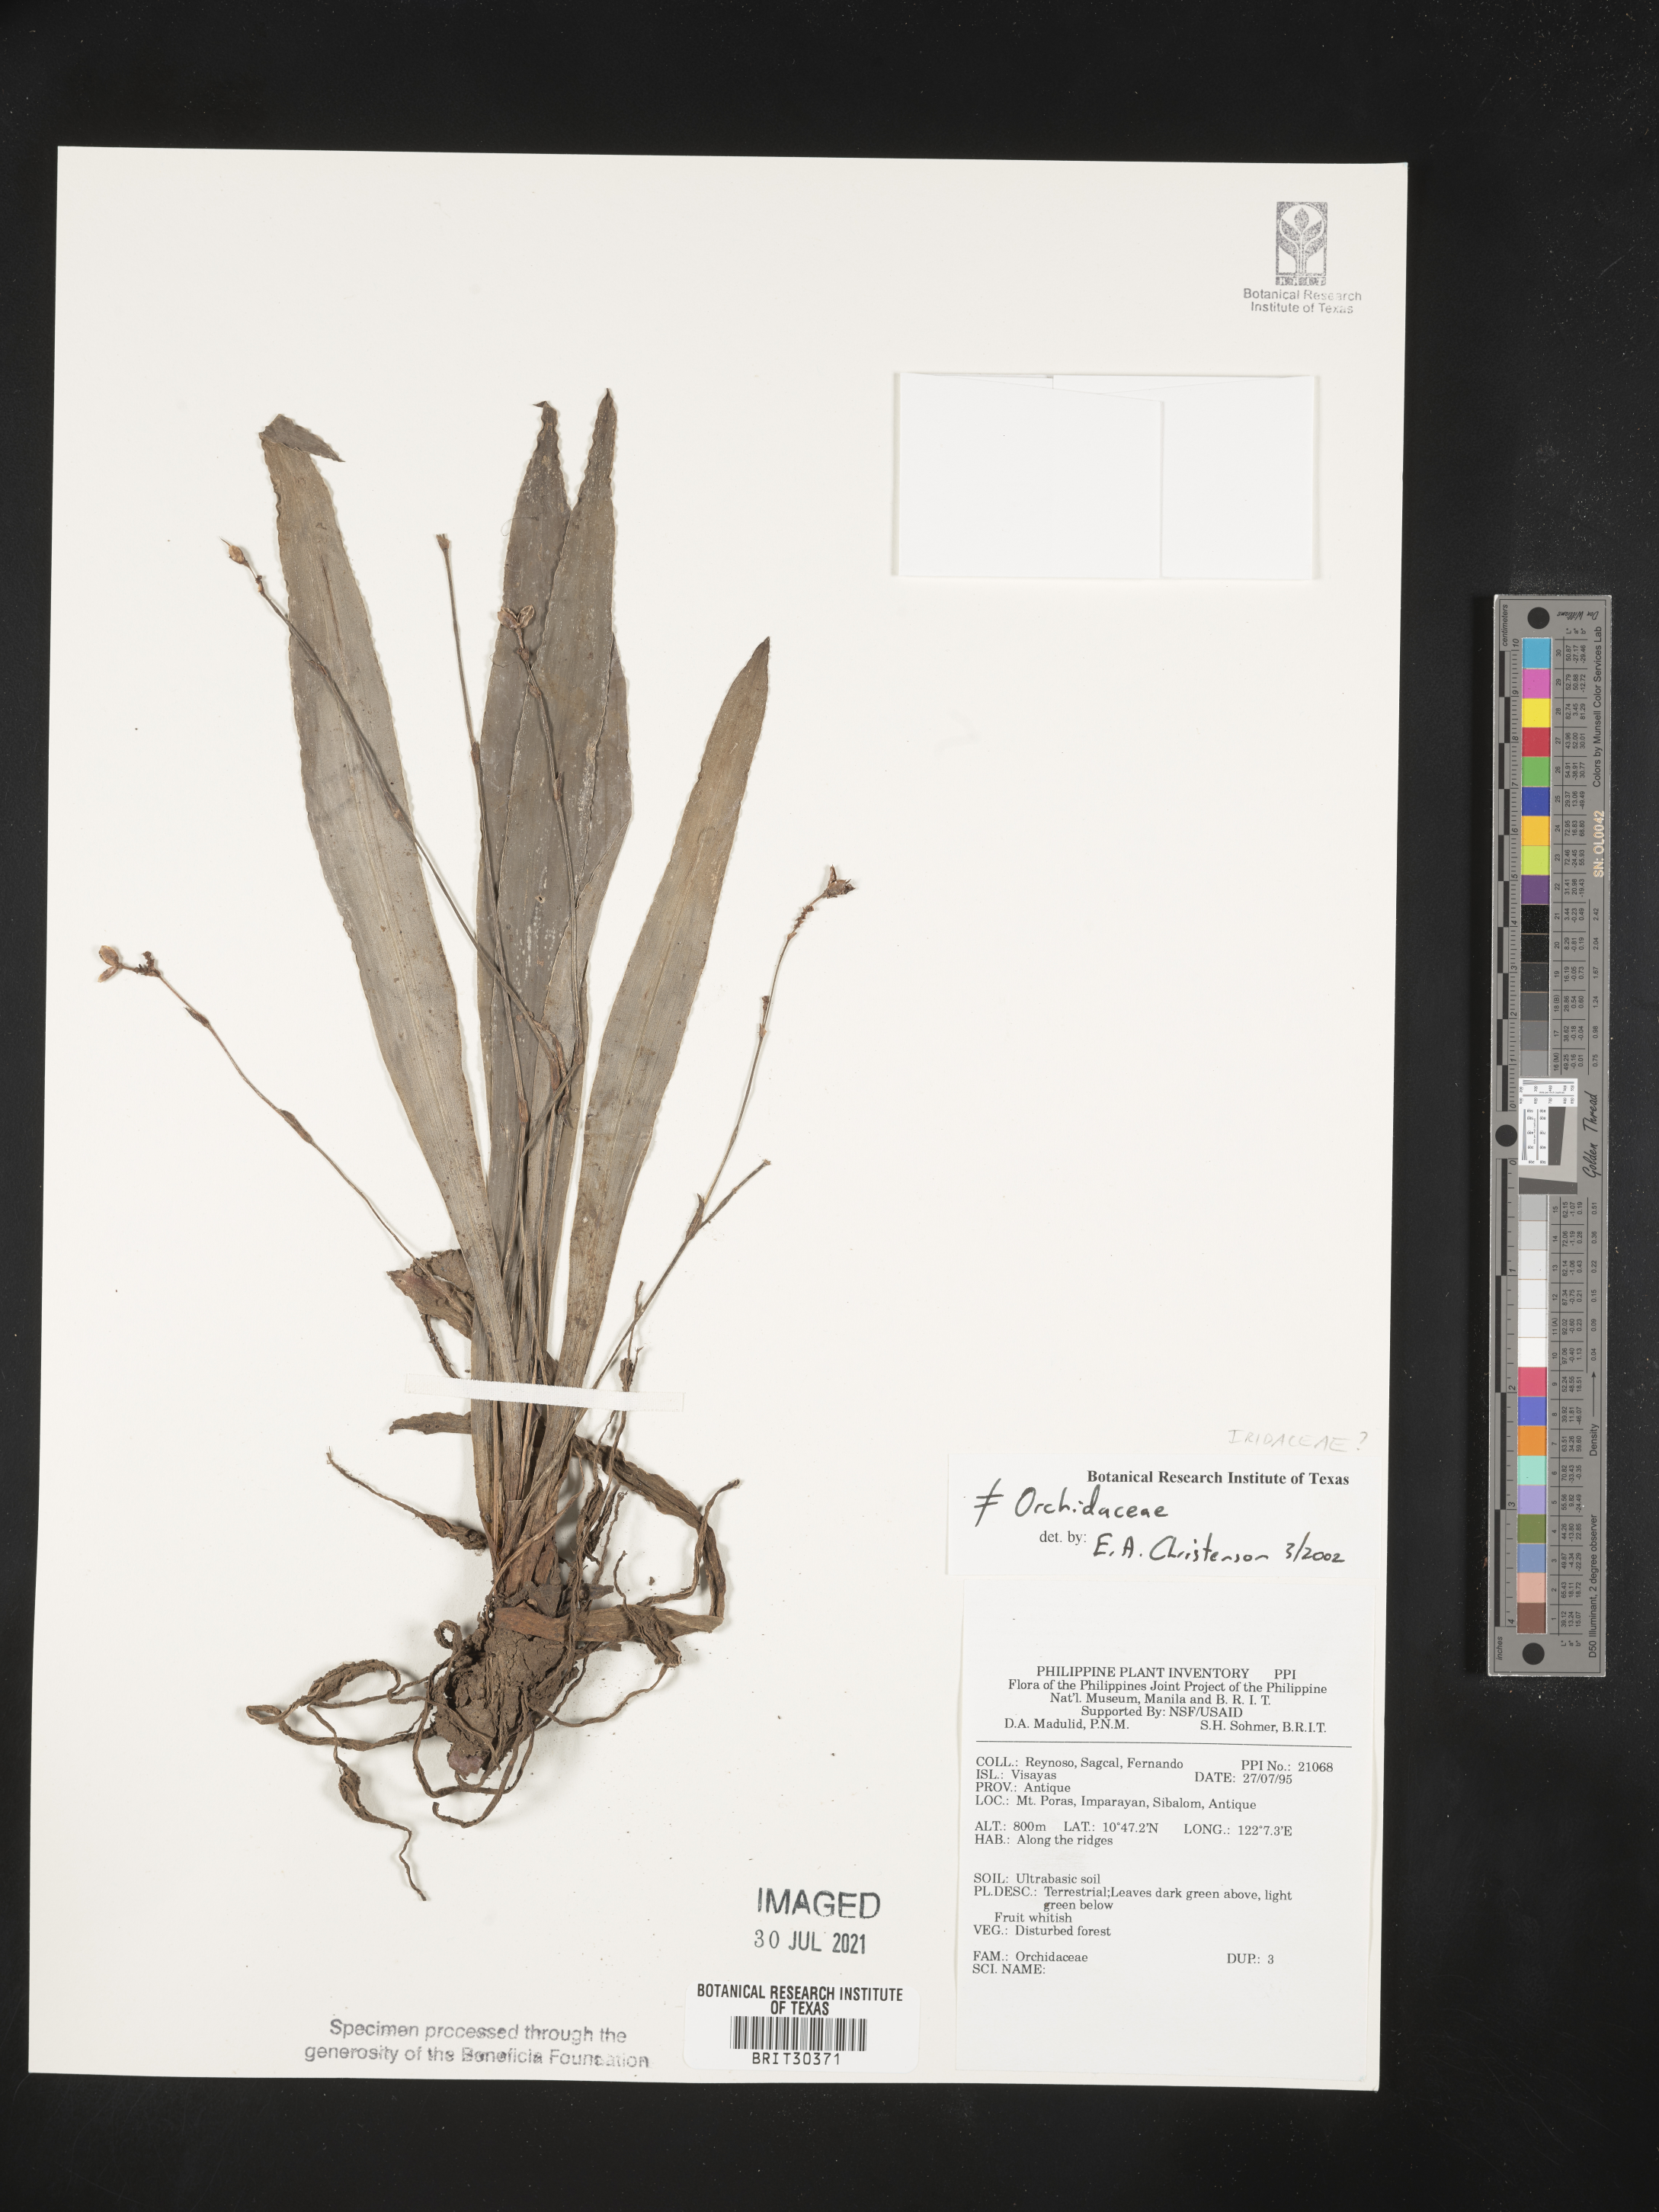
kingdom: Plantae
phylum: Tracheophyta
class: Liliopsida
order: Asparagales
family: Iridaceae
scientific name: Iridaceae
